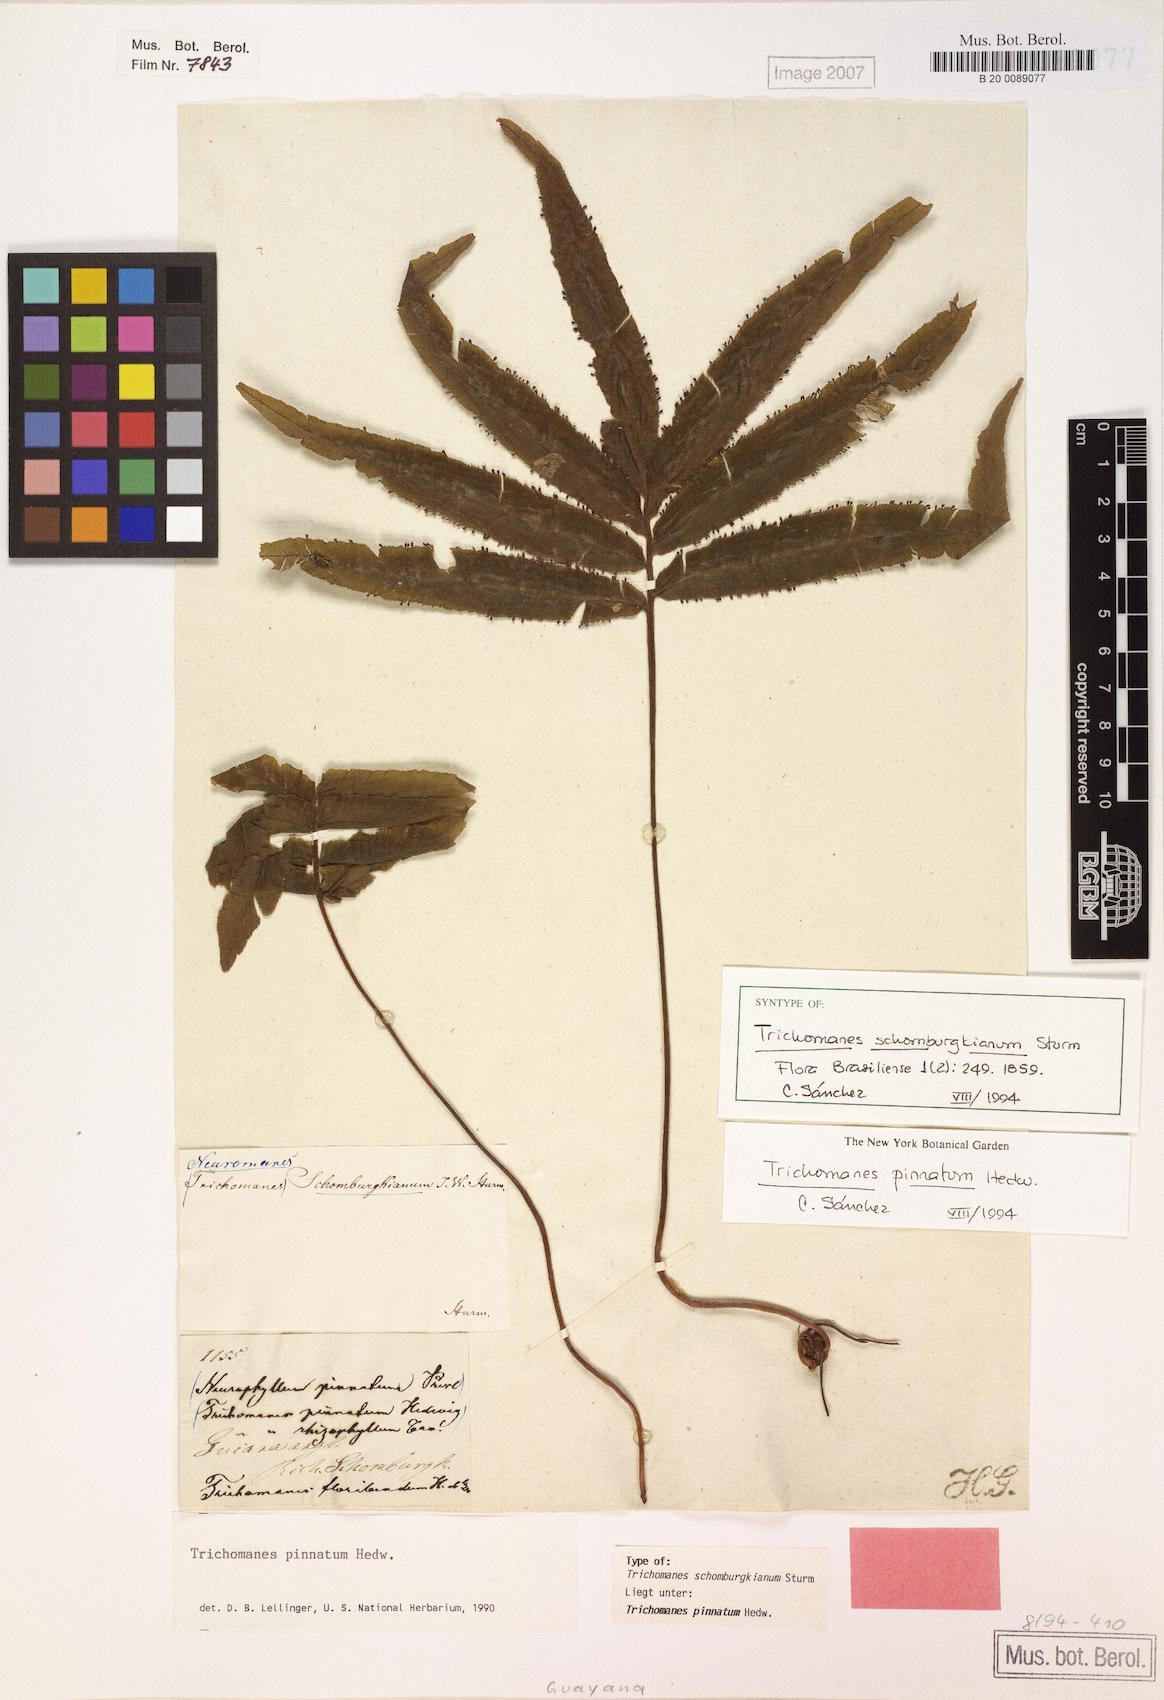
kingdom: Plantae
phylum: Tracheophyta
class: Polypodiopsida
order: Hymenophyllales
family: Hymenophyllaceae
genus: Trichomanes
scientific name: Trichomanes pinnatum
